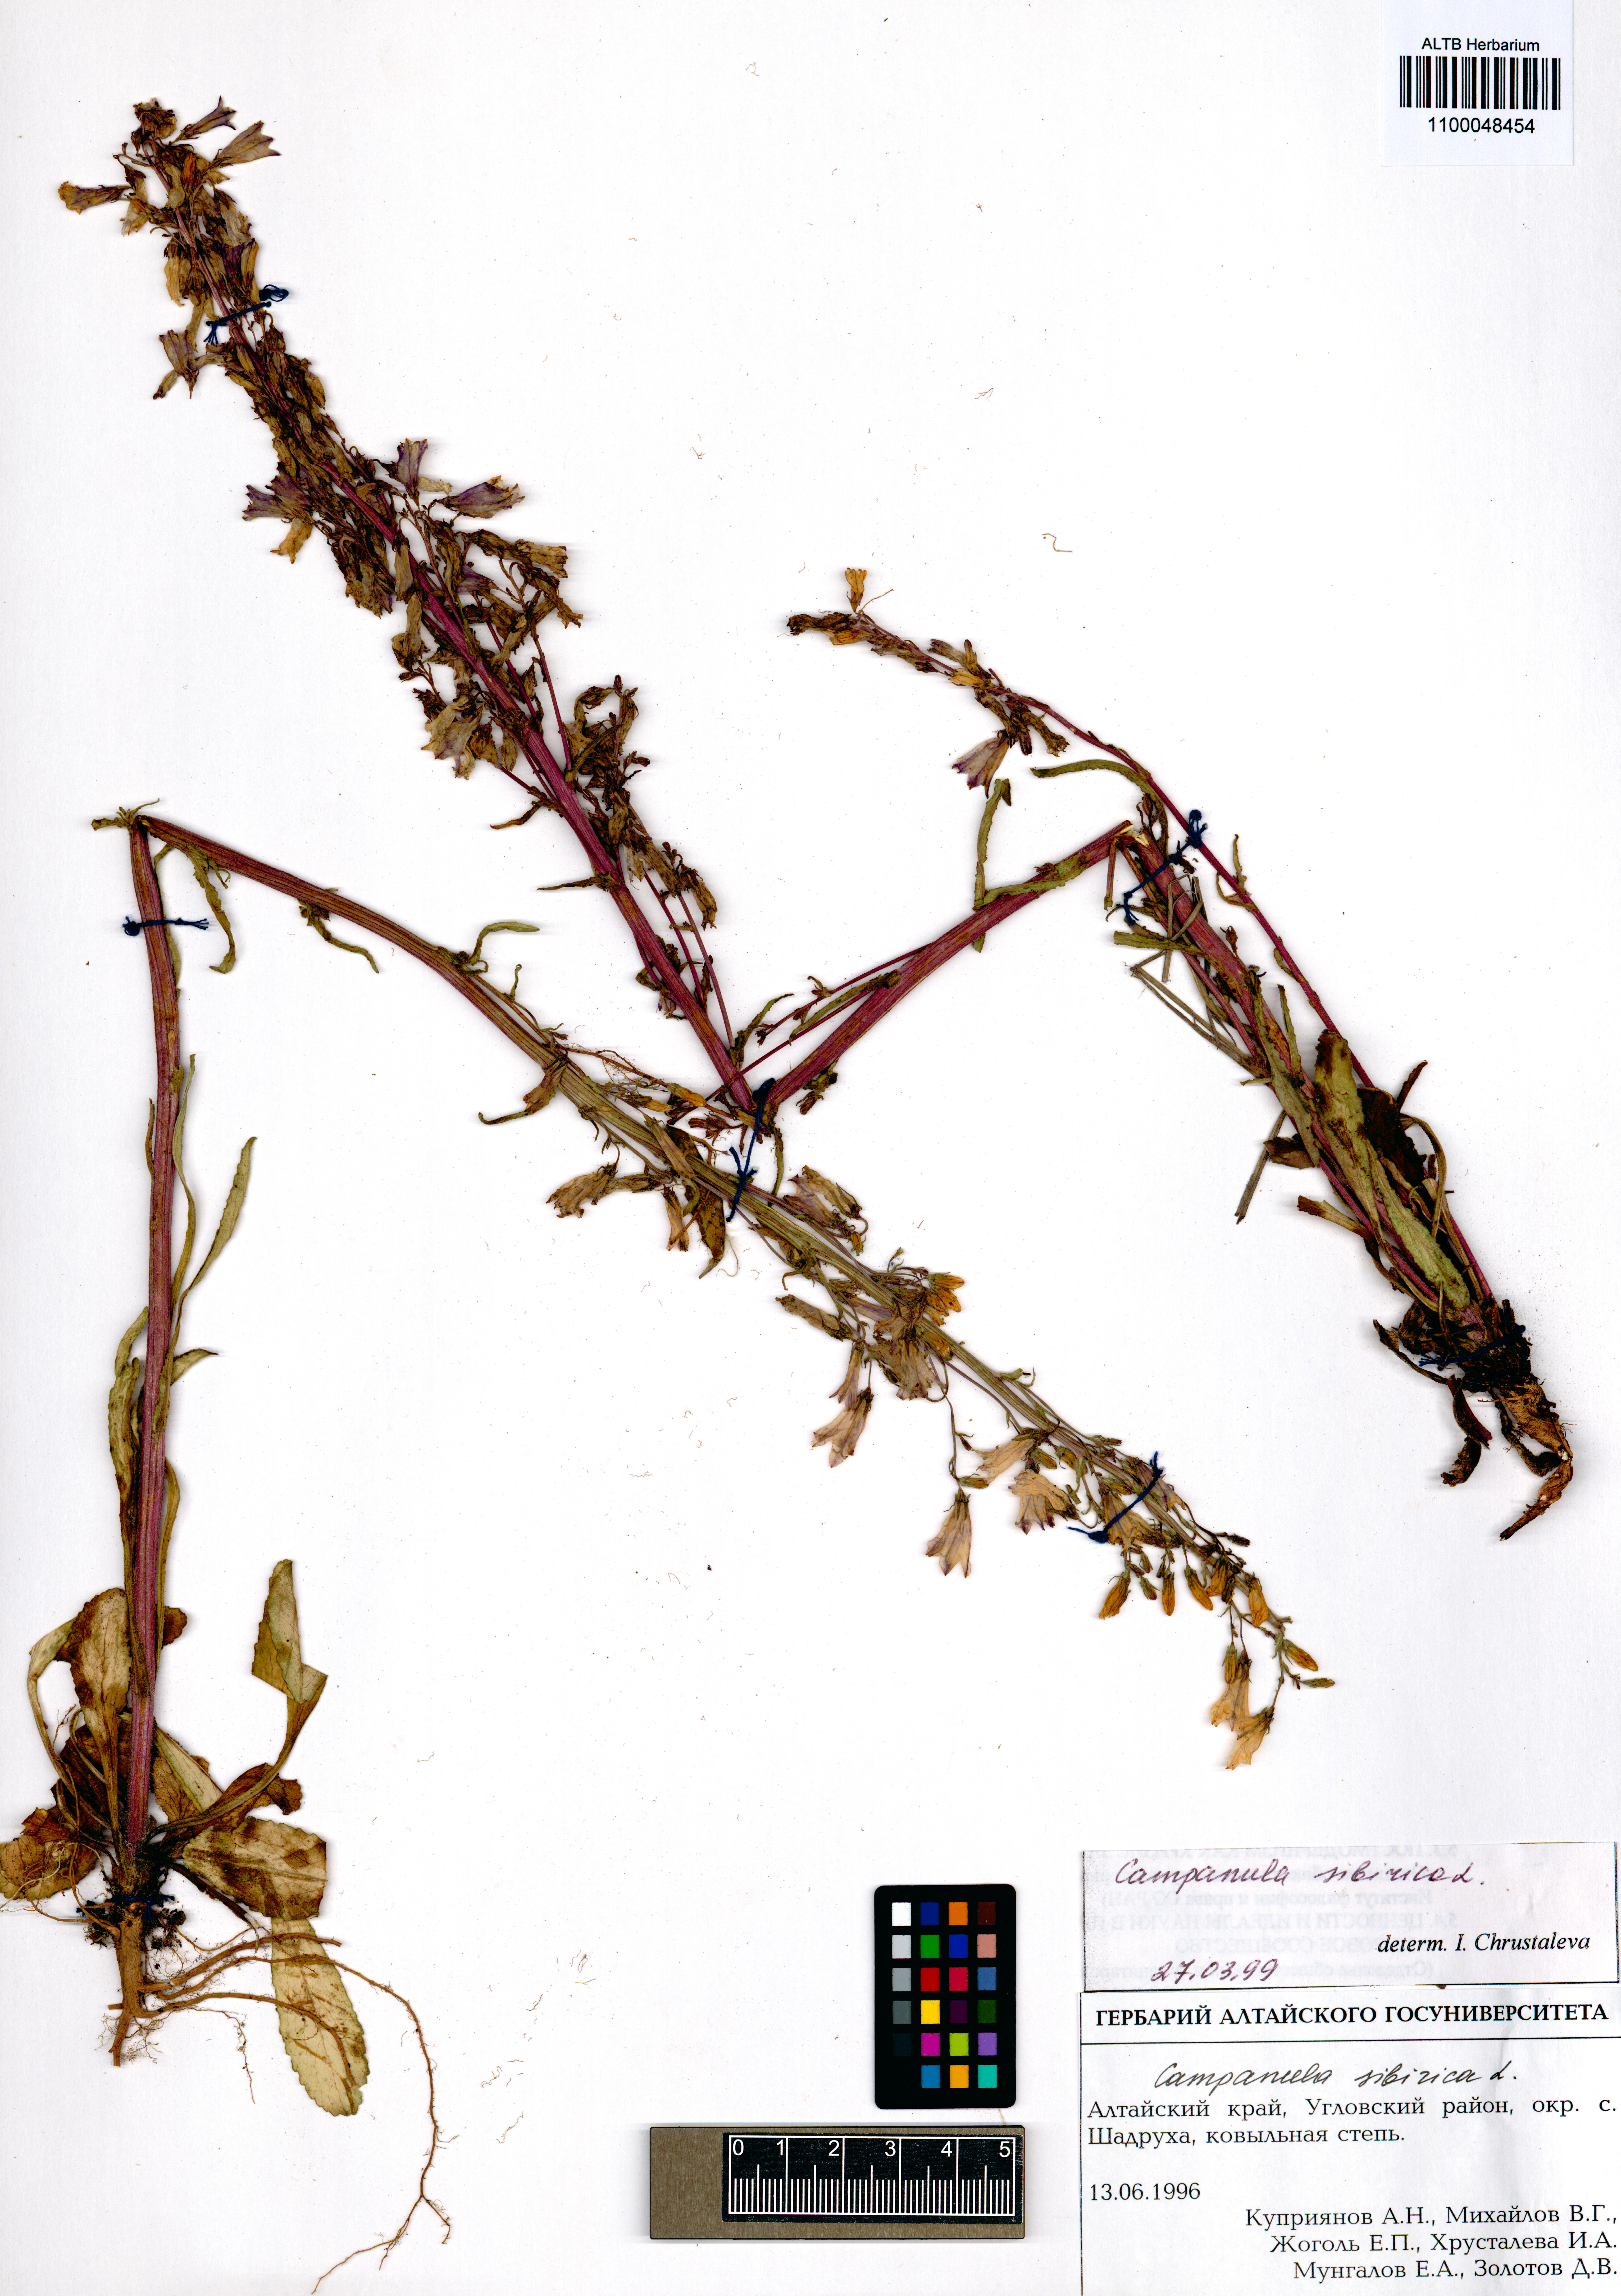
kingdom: Plantae
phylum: Tracheophyta
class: Magnoliopsida
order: Asterales
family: Campanulaceae
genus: Campanula
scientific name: Campanula sibirica
